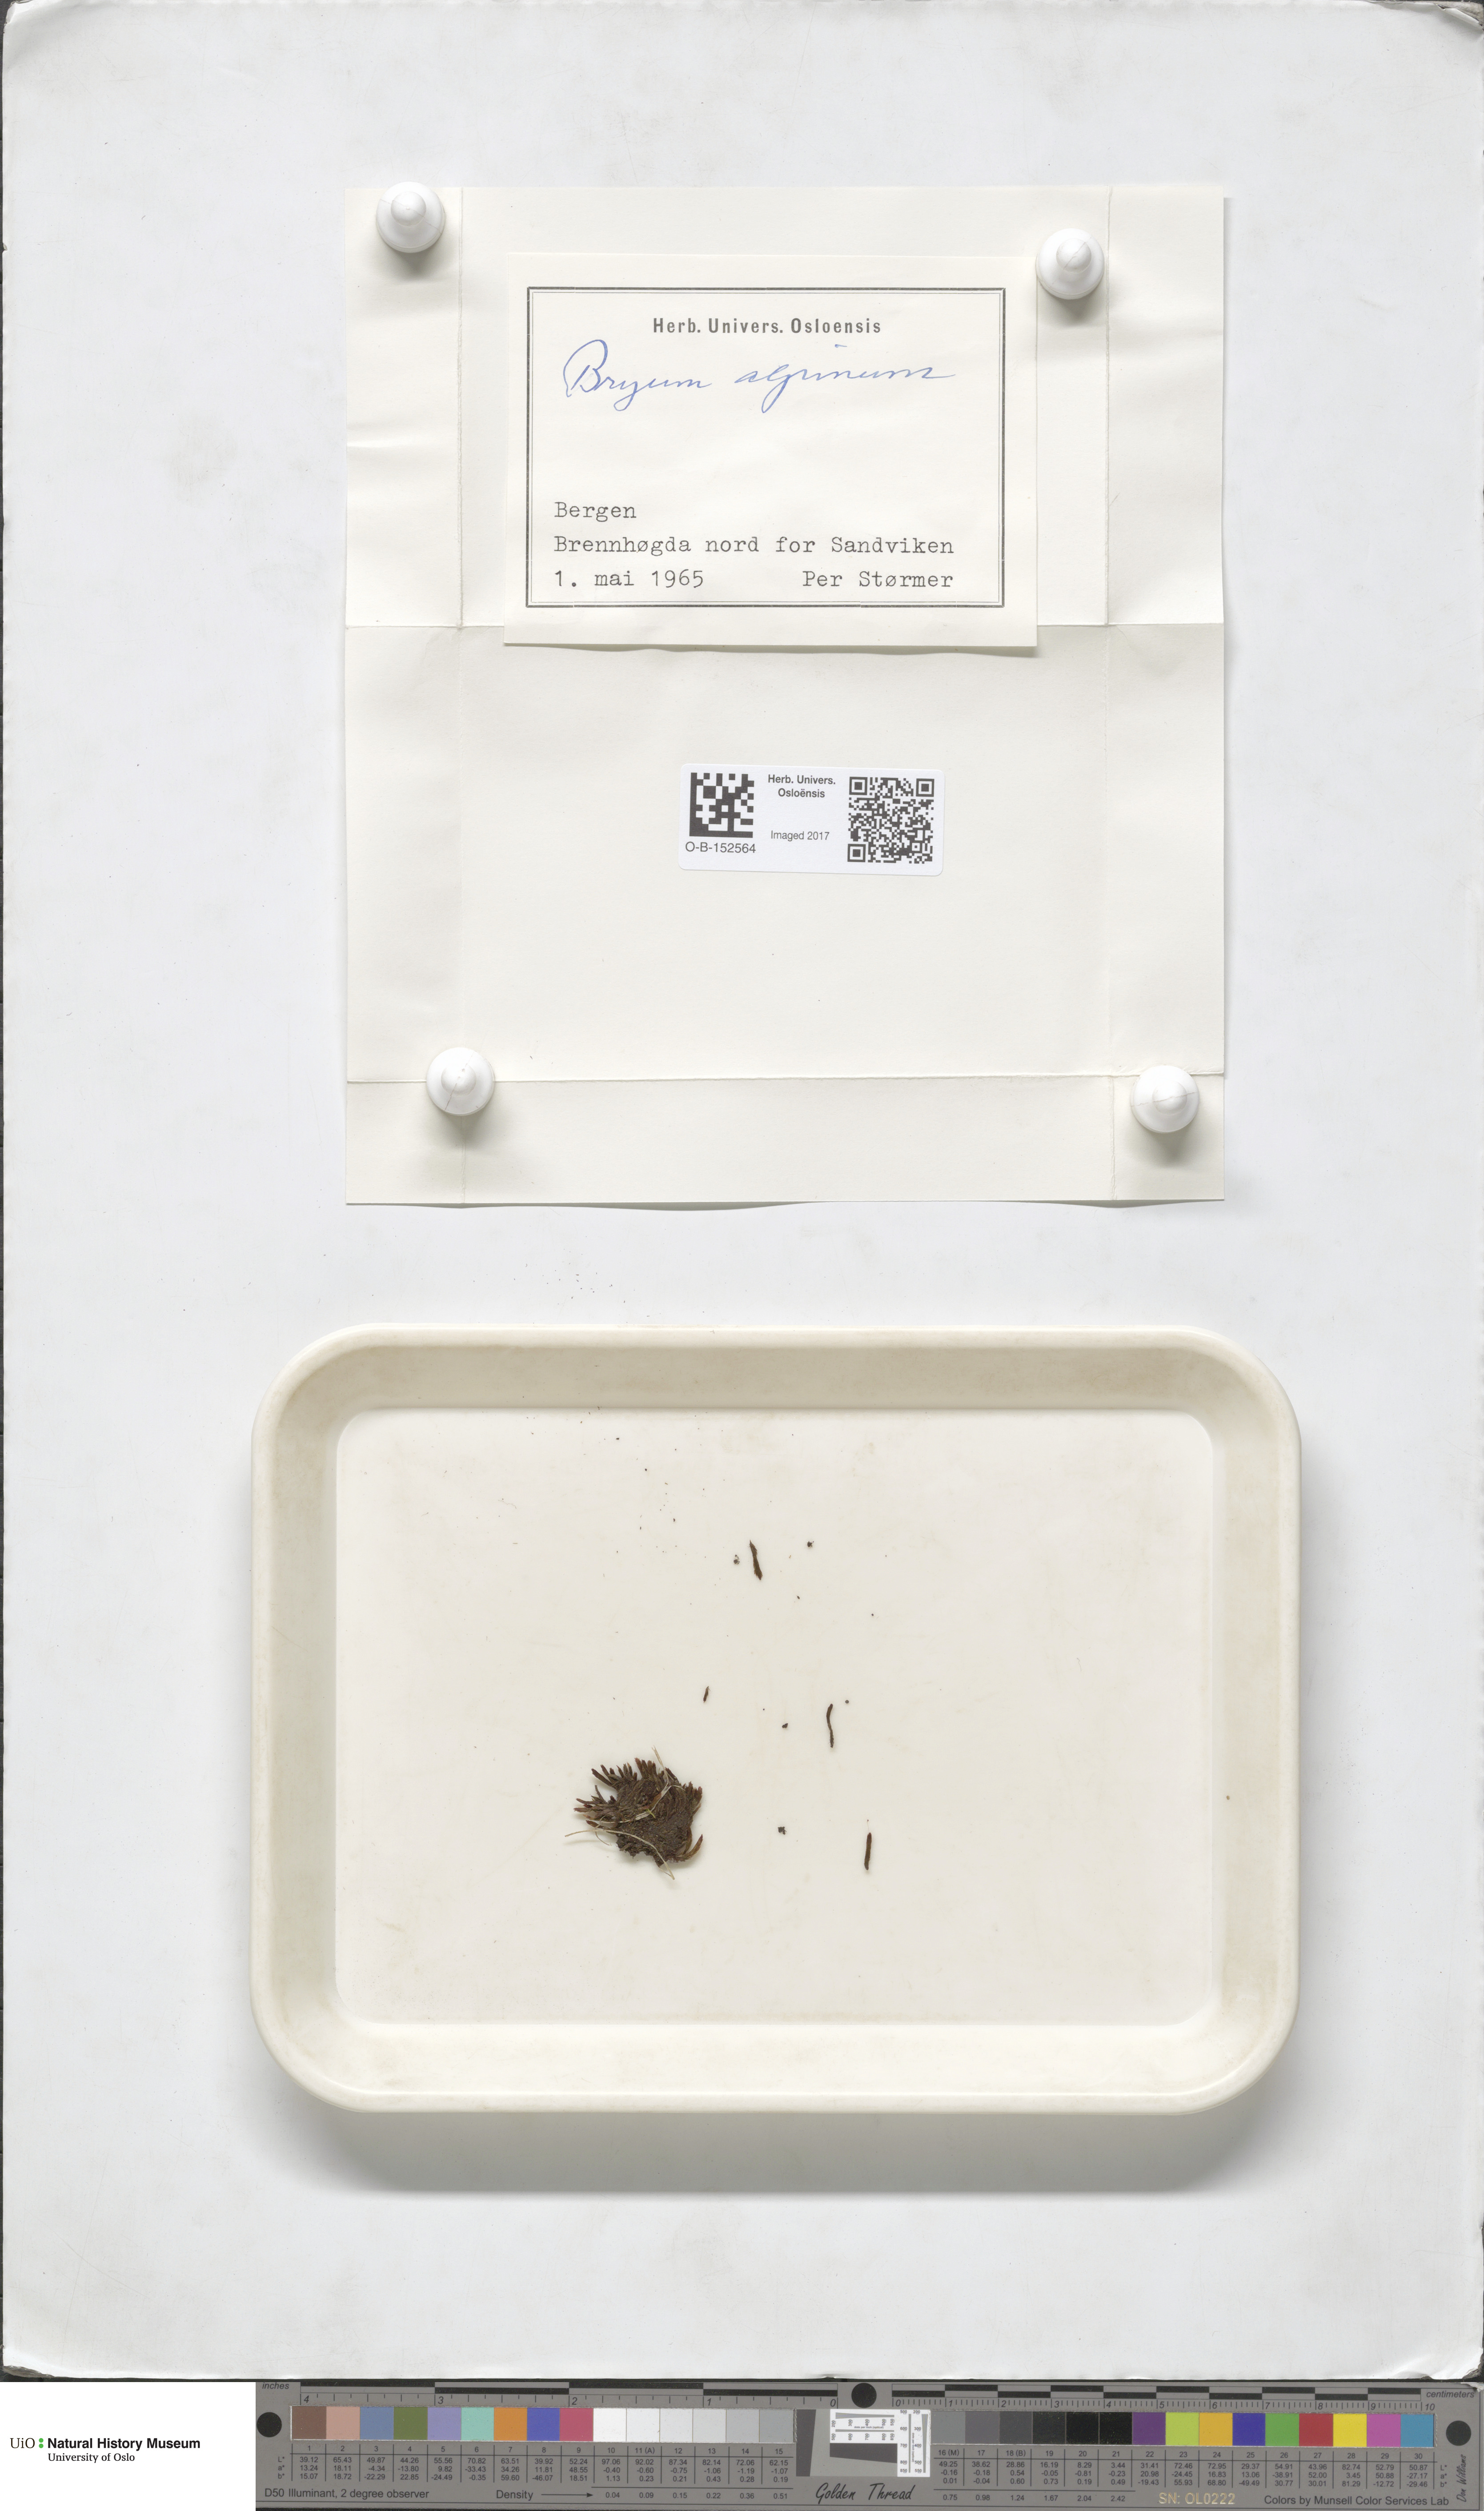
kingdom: Plantae
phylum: Bryophyta
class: Bryopsida
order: Bryales
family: Bryaceae
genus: Imbribryum
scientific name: Imbribryum alpinum
